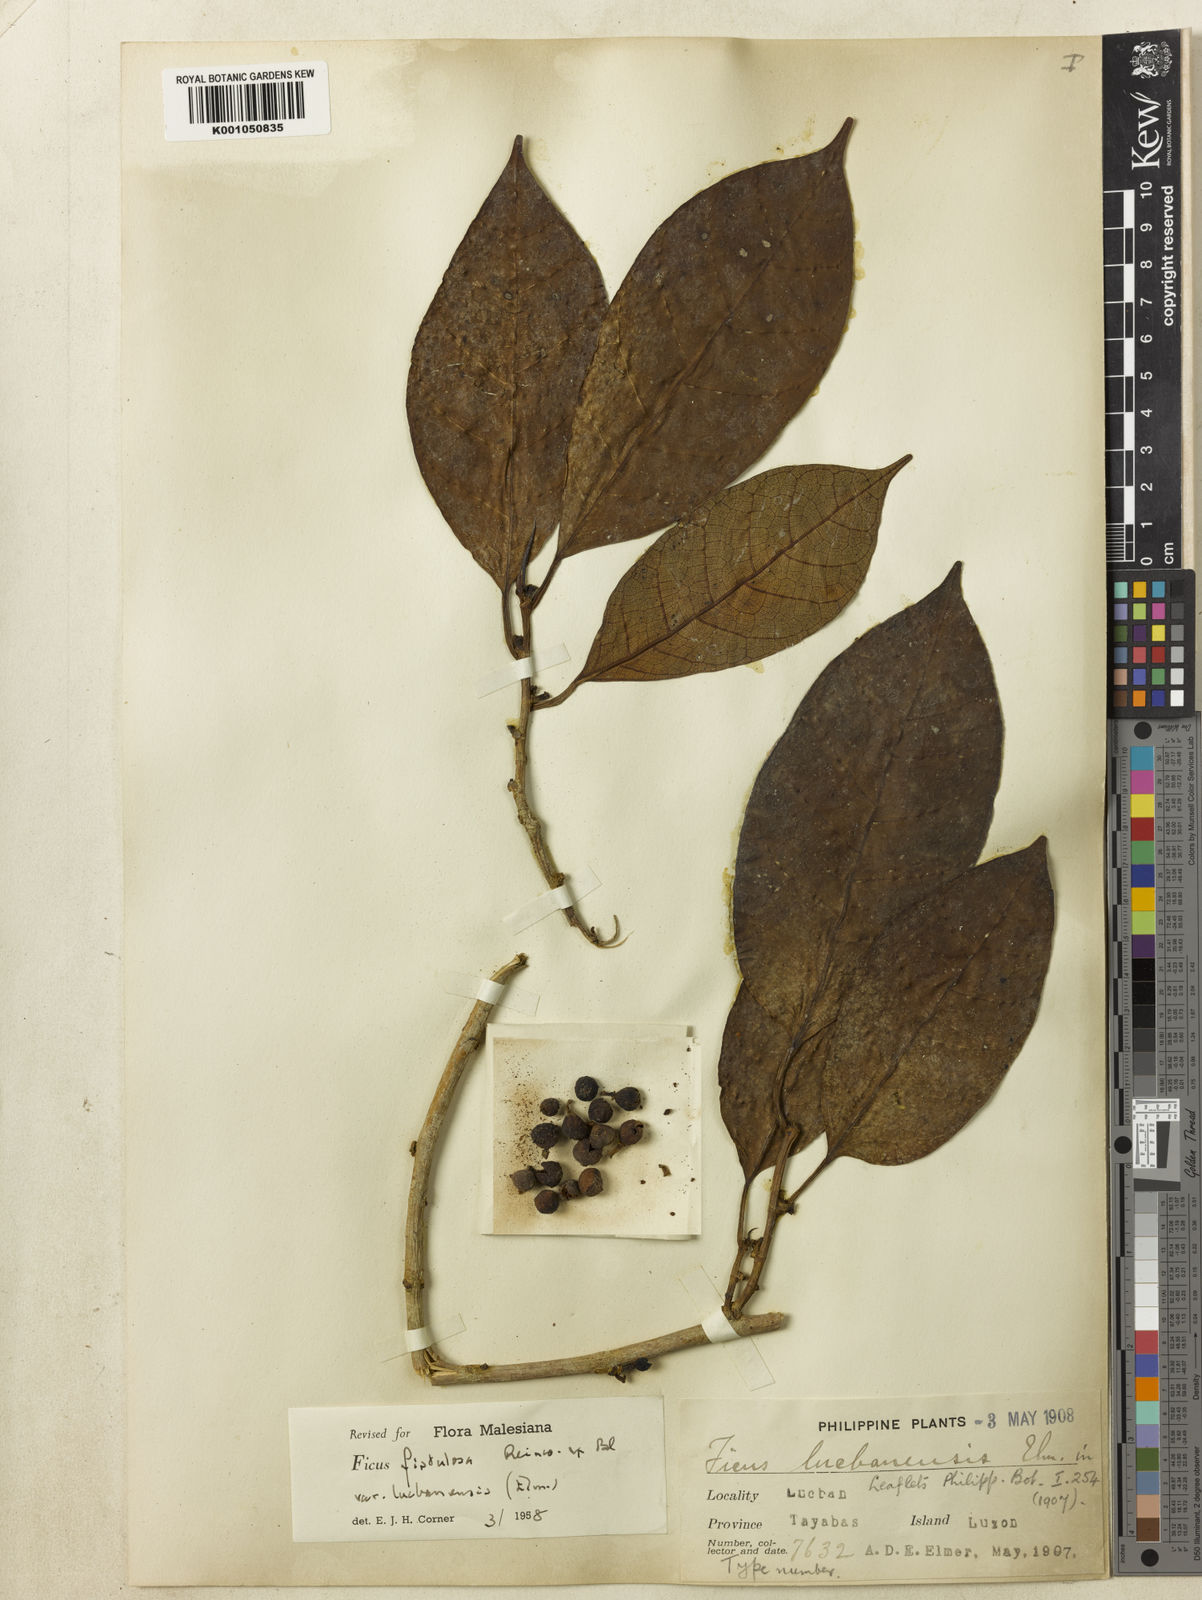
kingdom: Plantae
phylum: Tracheophyta
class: Magnoliopsida
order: Rosales
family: Moraceae
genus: Ficus
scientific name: Ficus septica
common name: Septic fig
